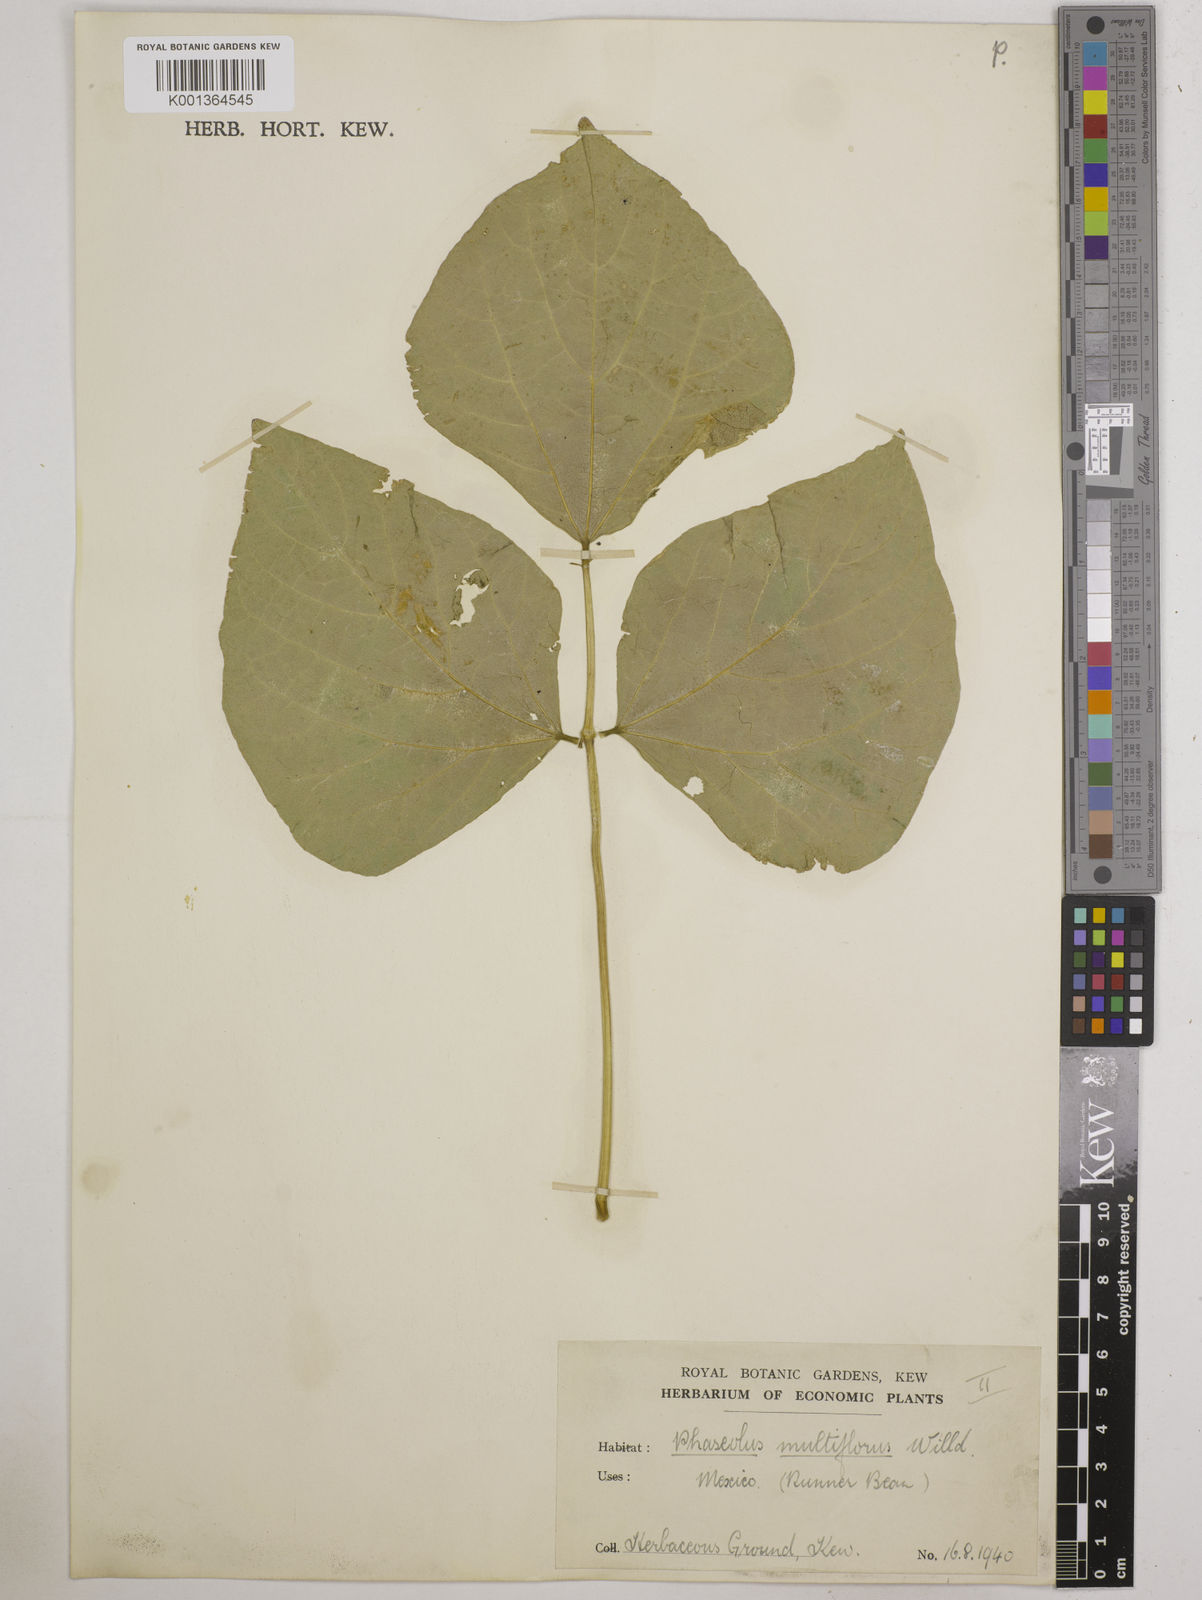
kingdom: Plantae
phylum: Tracheophyta
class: Magnoliopsida
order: Fabales
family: Fabaceae
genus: Phaseolus
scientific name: Phaseolus coccineus
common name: Runner bean
